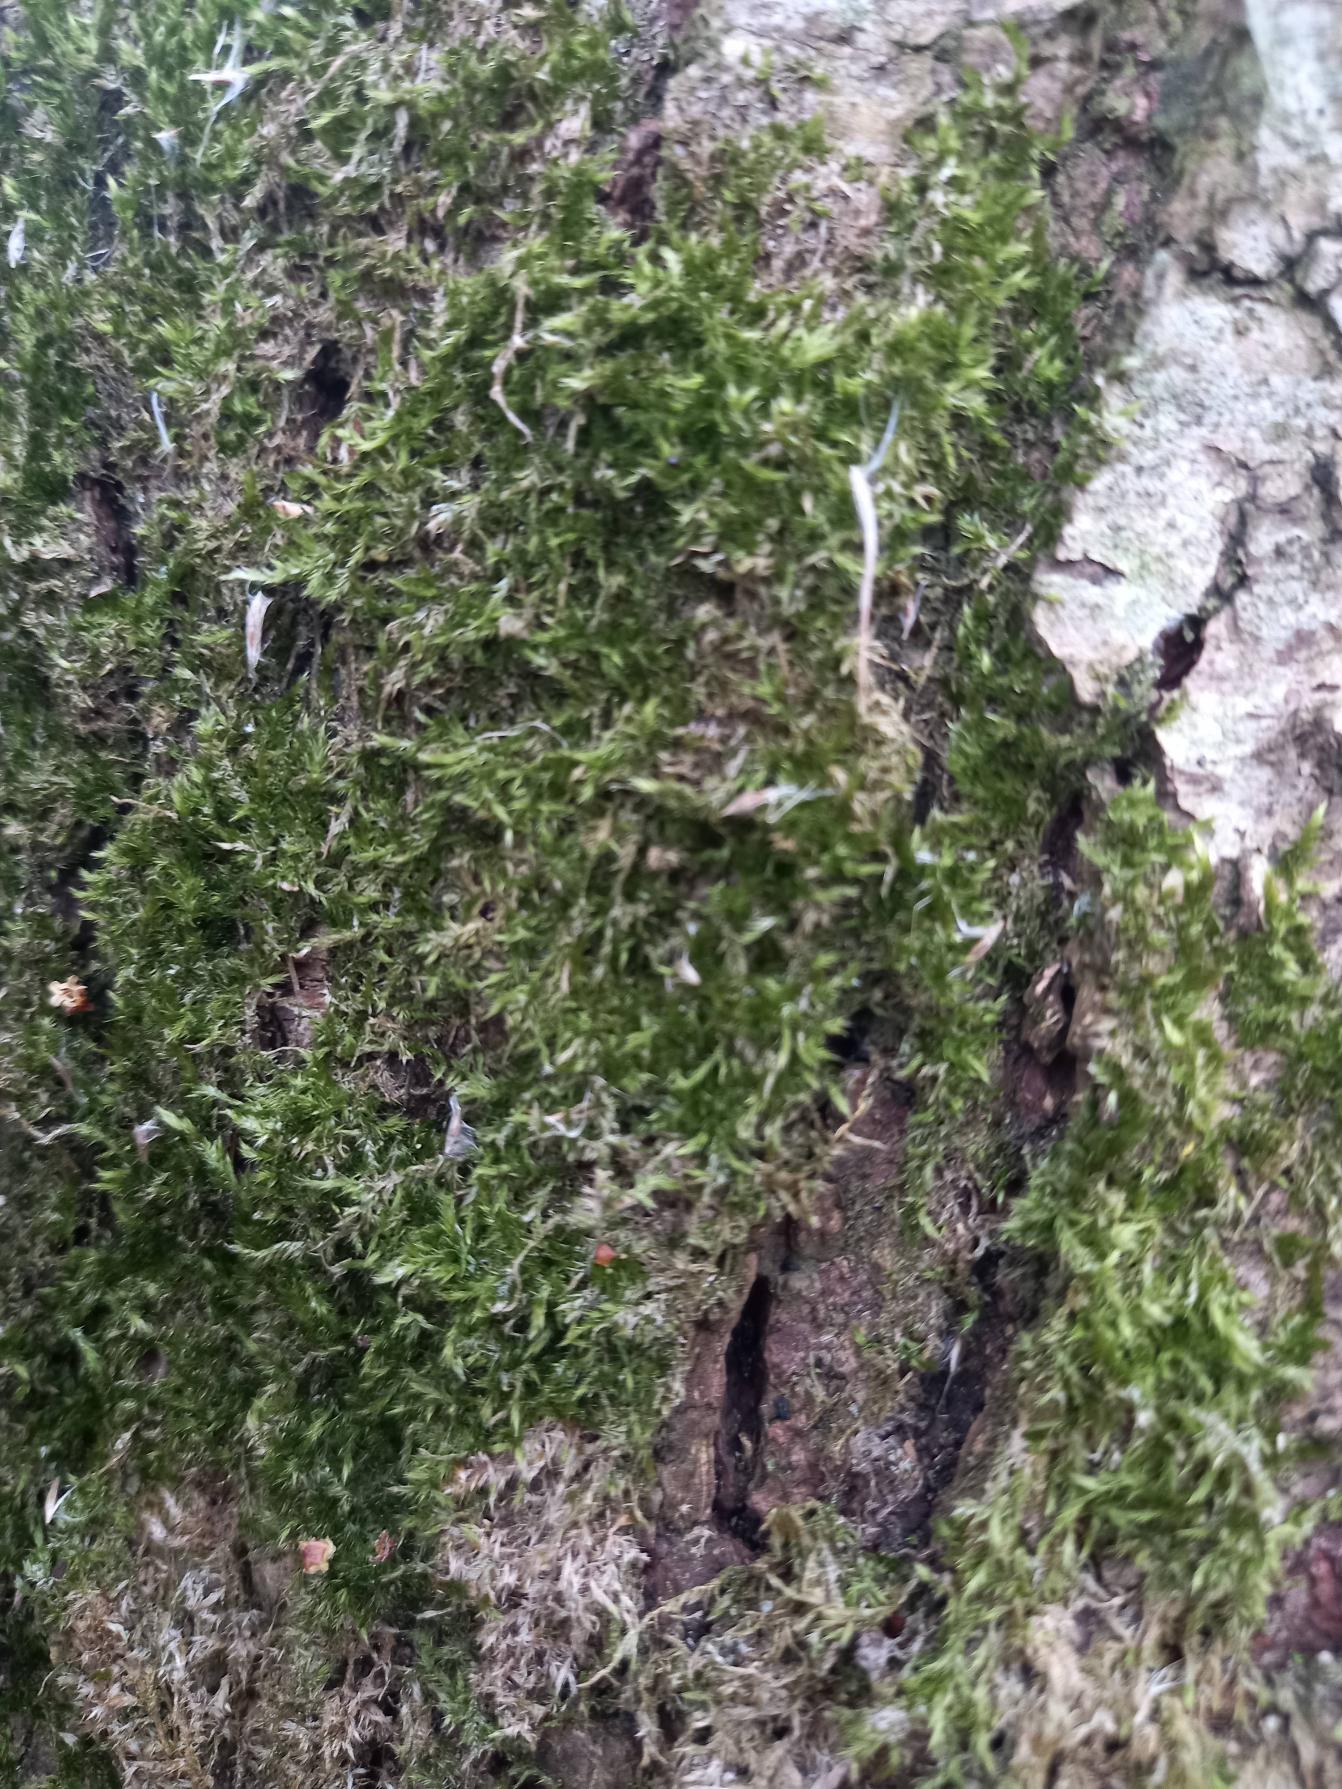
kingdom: Plantae
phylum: Bryophyta
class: Bryopsida
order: Hypnales
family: Hypnaceae
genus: Hypnum
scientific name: Hypnum
